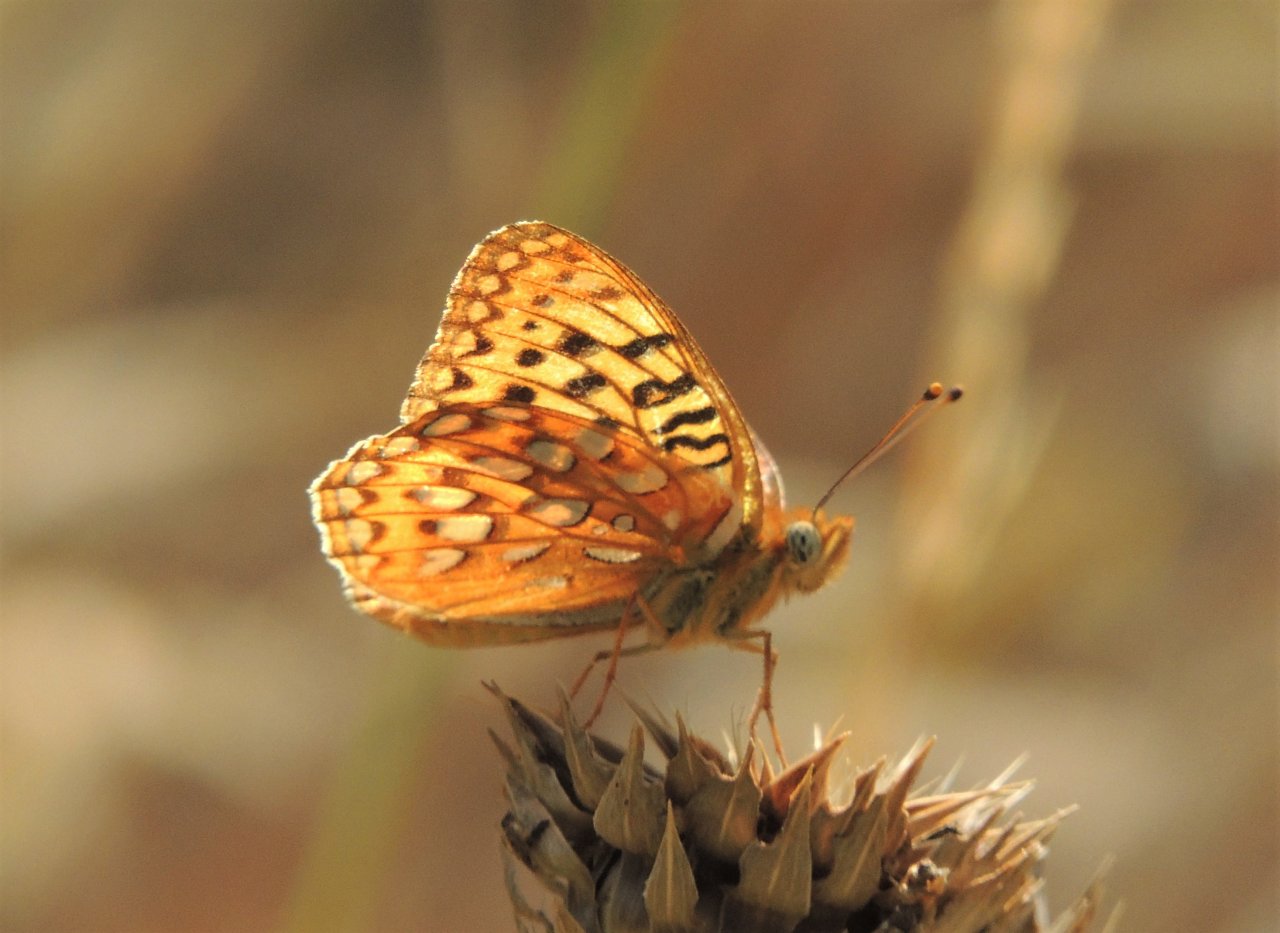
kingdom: Animalia
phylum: Arthropoda
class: Insecta
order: Lepidoptera
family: Nymphalidae
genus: Speyeria
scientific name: Speyeria zerene
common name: Zerene Fritillary
